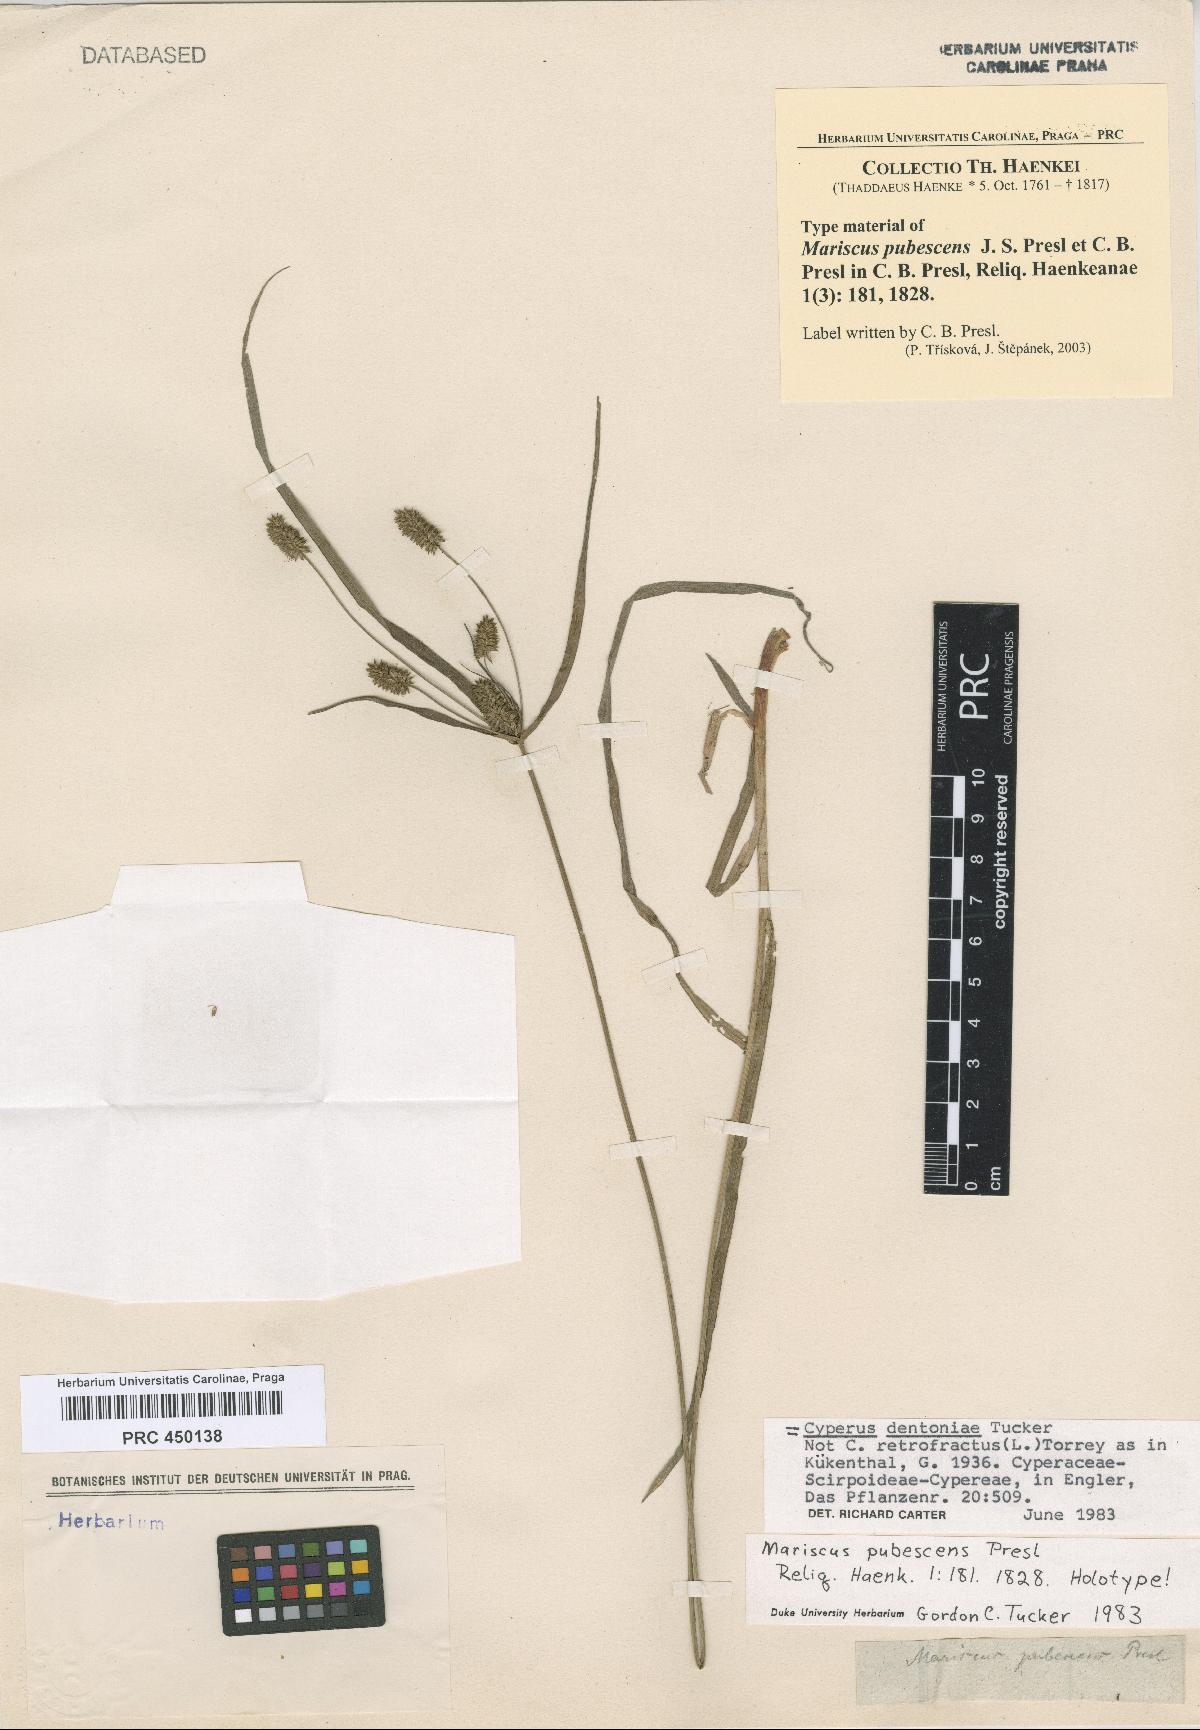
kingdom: Plantae
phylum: Tracheophyta
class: Liliopsida
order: Poales
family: Cyperaceae
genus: Cyperus
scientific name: Cyperus dentoniae
